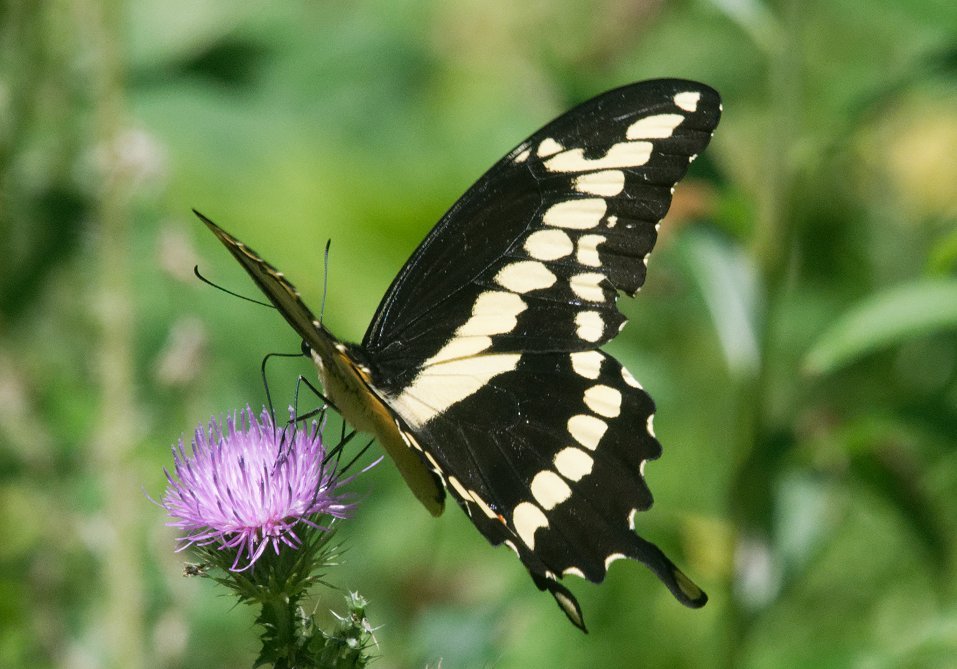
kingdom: Animalia
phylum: Arthropoda
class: Insecta
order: Lepidoptera
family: Papilionidae
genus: Papilio
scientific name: Papilio cresphontes
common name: Eastern Giant Swallowtail
